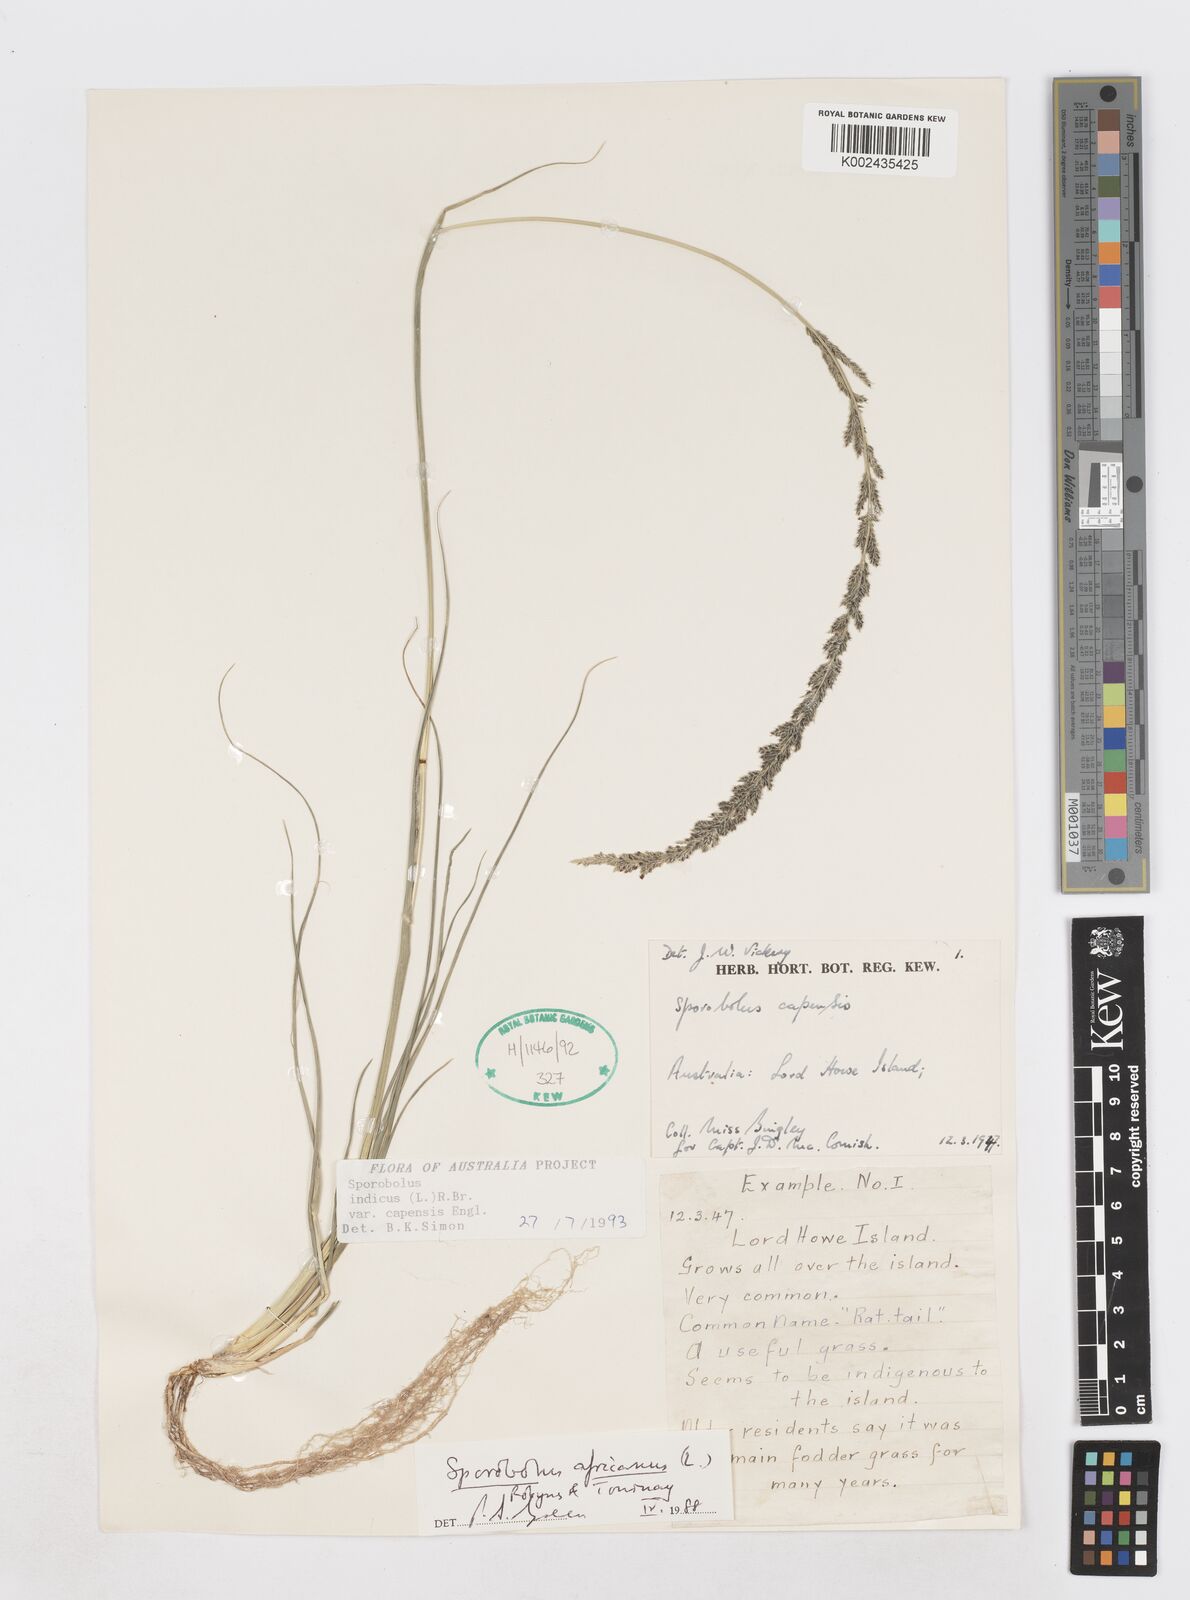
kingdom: Plantae
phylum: Tracheophyta
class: Liliopsida
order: Poales
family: Poaceae
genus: Sporobolus
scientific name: Sporobolus africanus
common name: African dropseed
